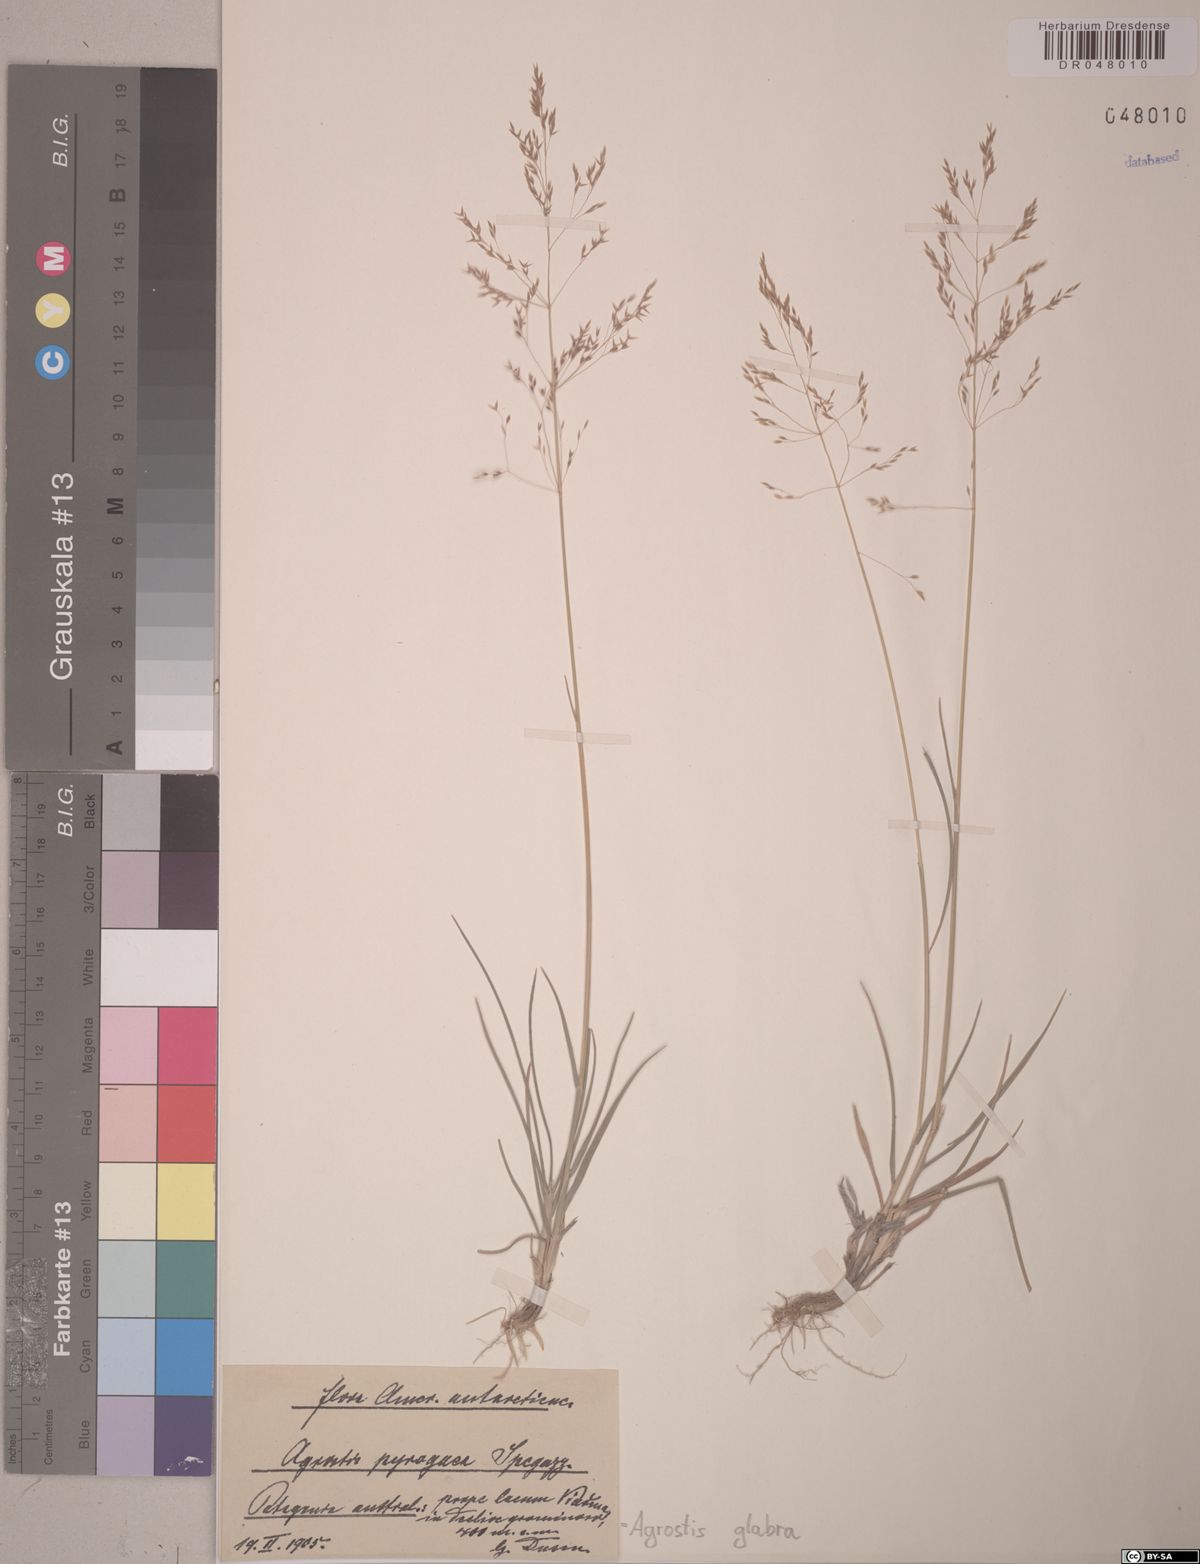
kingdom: Plantae
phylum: Tracheophyta
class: Liliopsida
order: Poales
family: Poaceae
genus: Agrostis
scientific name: Agrostis glabra
